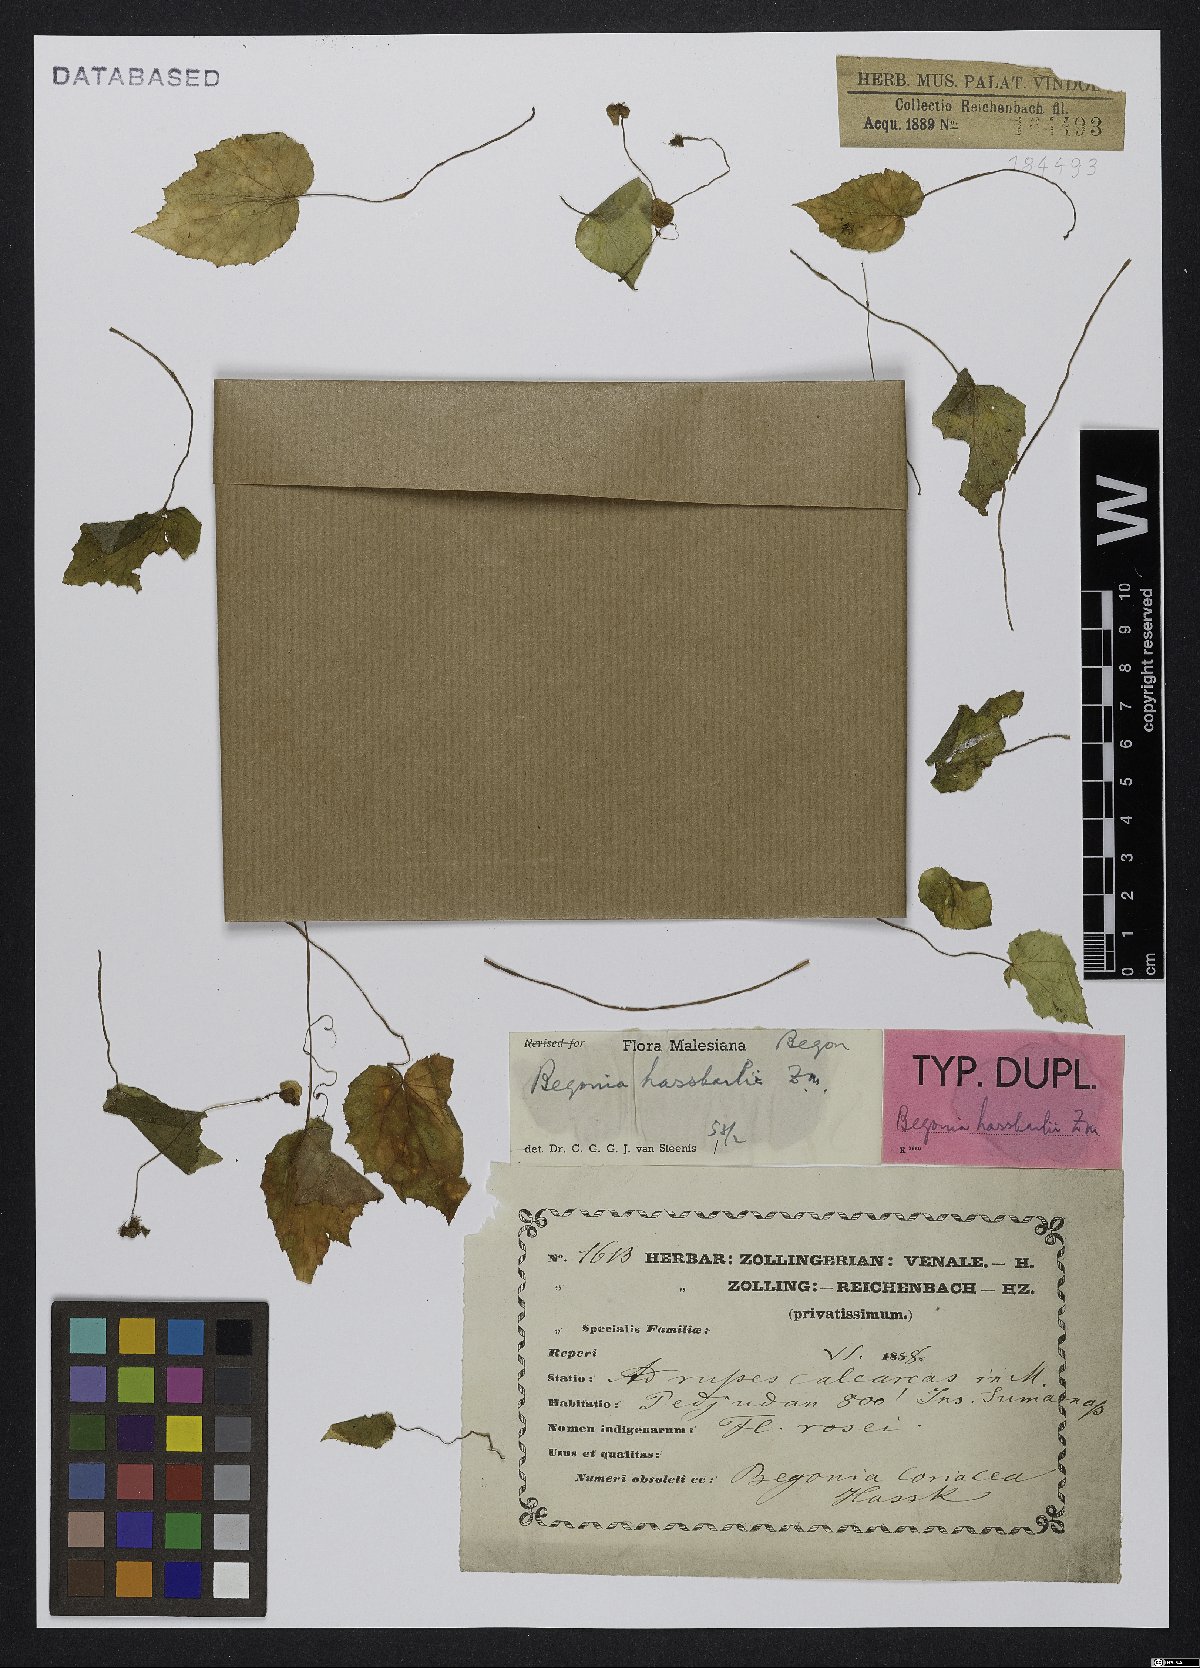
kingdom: Plantae
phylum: Tracheophyta
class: Magnoliopsida
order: Cucurbitales
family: Begoniaceae
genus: Begonia
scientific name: Begonia hasskarliana
